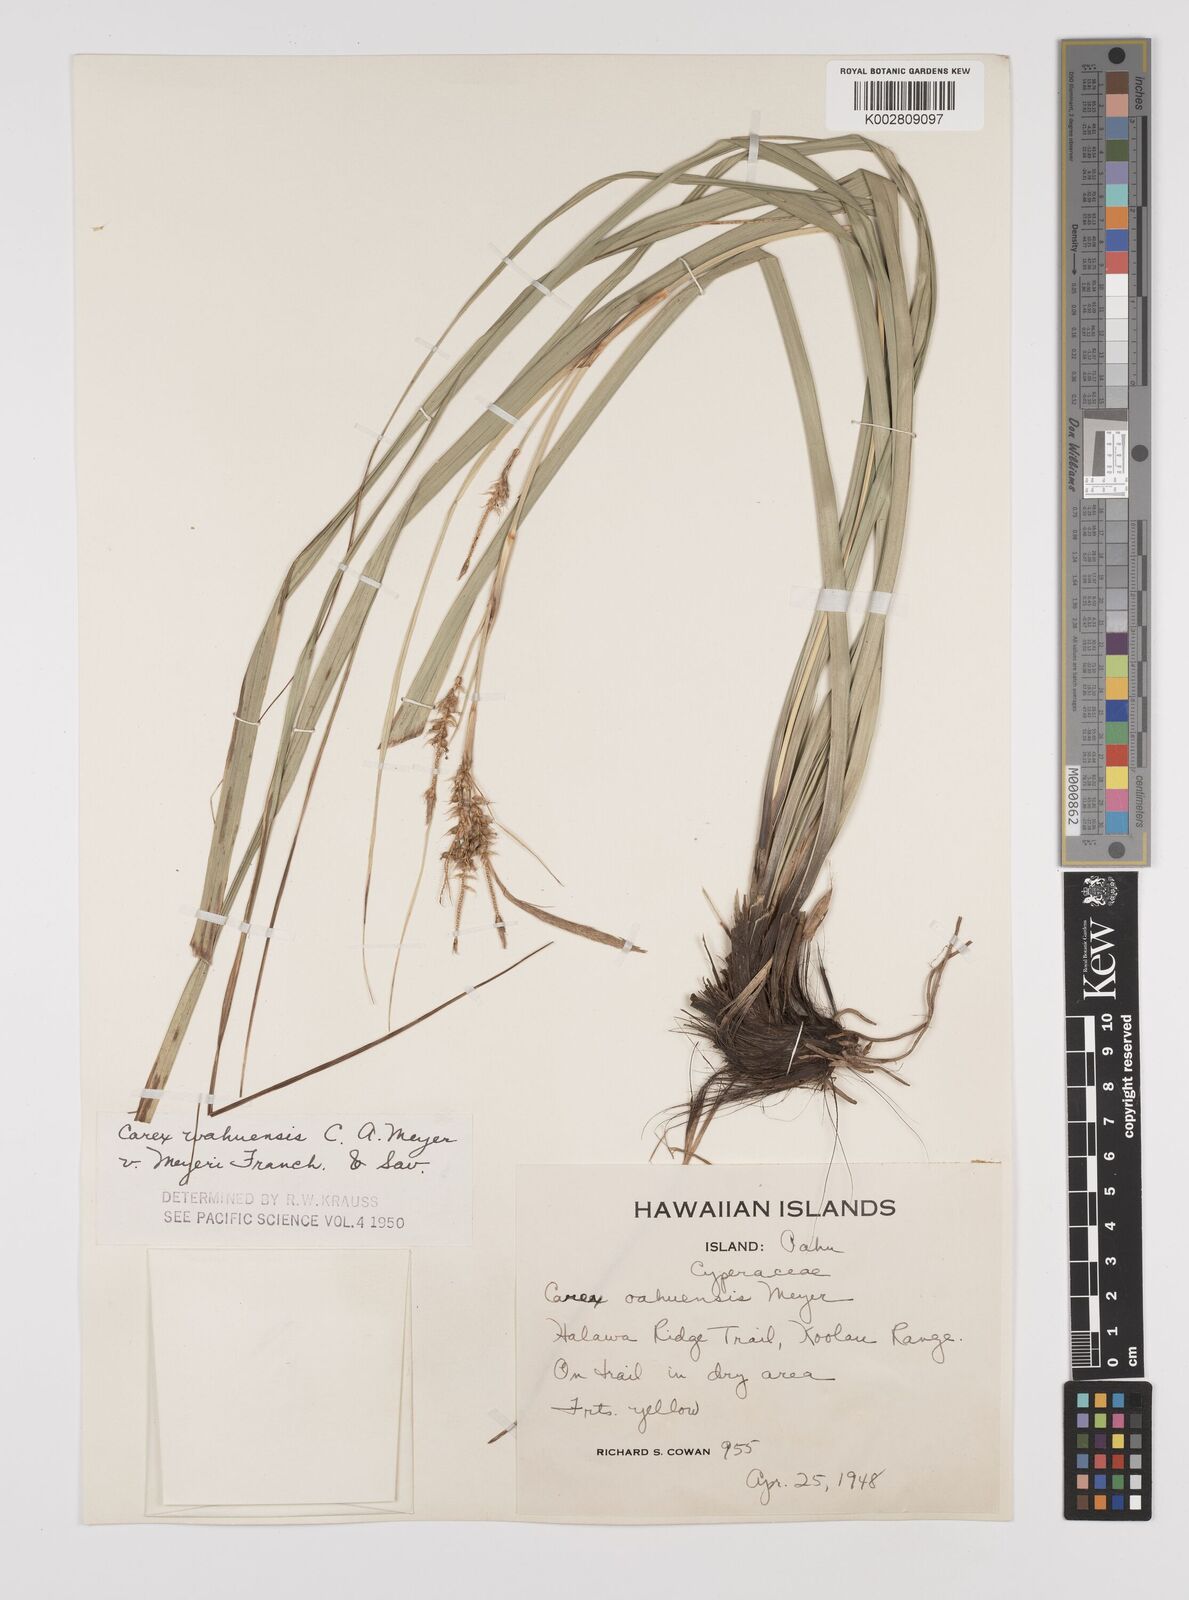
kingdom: Plantae
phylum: Tracheophyta
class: Liliopsida
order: Poales
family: Cyperaceae
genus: Carex
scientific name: Carex wahuensis
